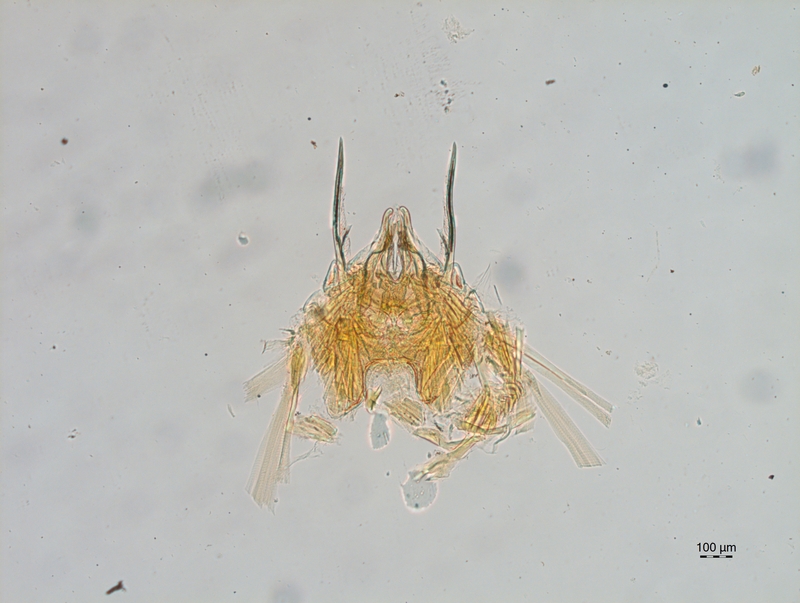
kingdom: Animalia
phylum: Arthropoda
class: Diplopoda
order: Chordeumatida
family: Attemsiidae
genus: Attemsia
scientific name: Attemsia stygia
